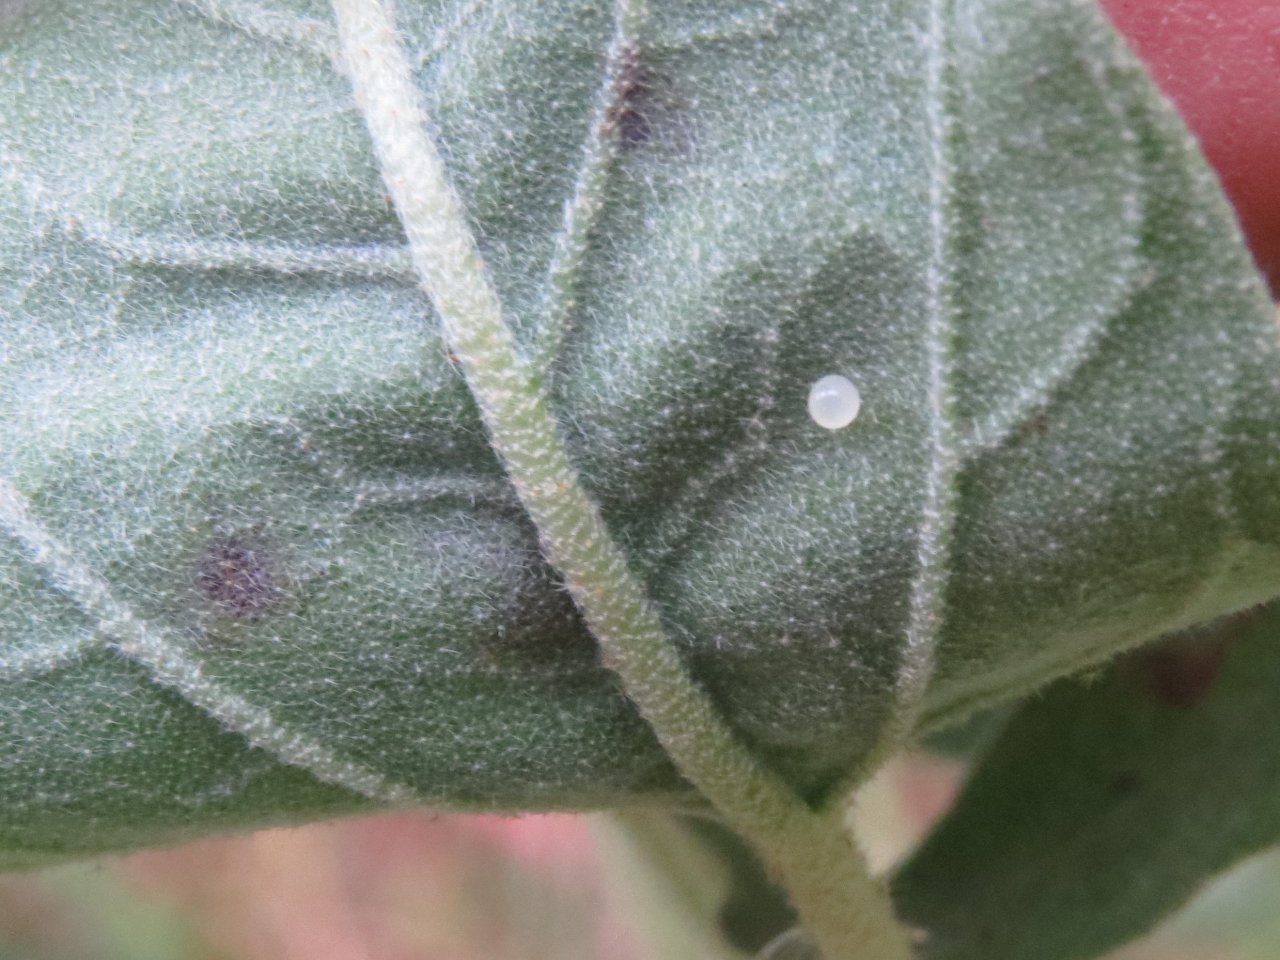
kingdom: Animalia
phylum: Arthropoda
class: Insecta
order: Lepidoptera
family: Nymphalidae
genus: Anaea
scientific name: Anaea andria
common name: Goatweed Leafwing
